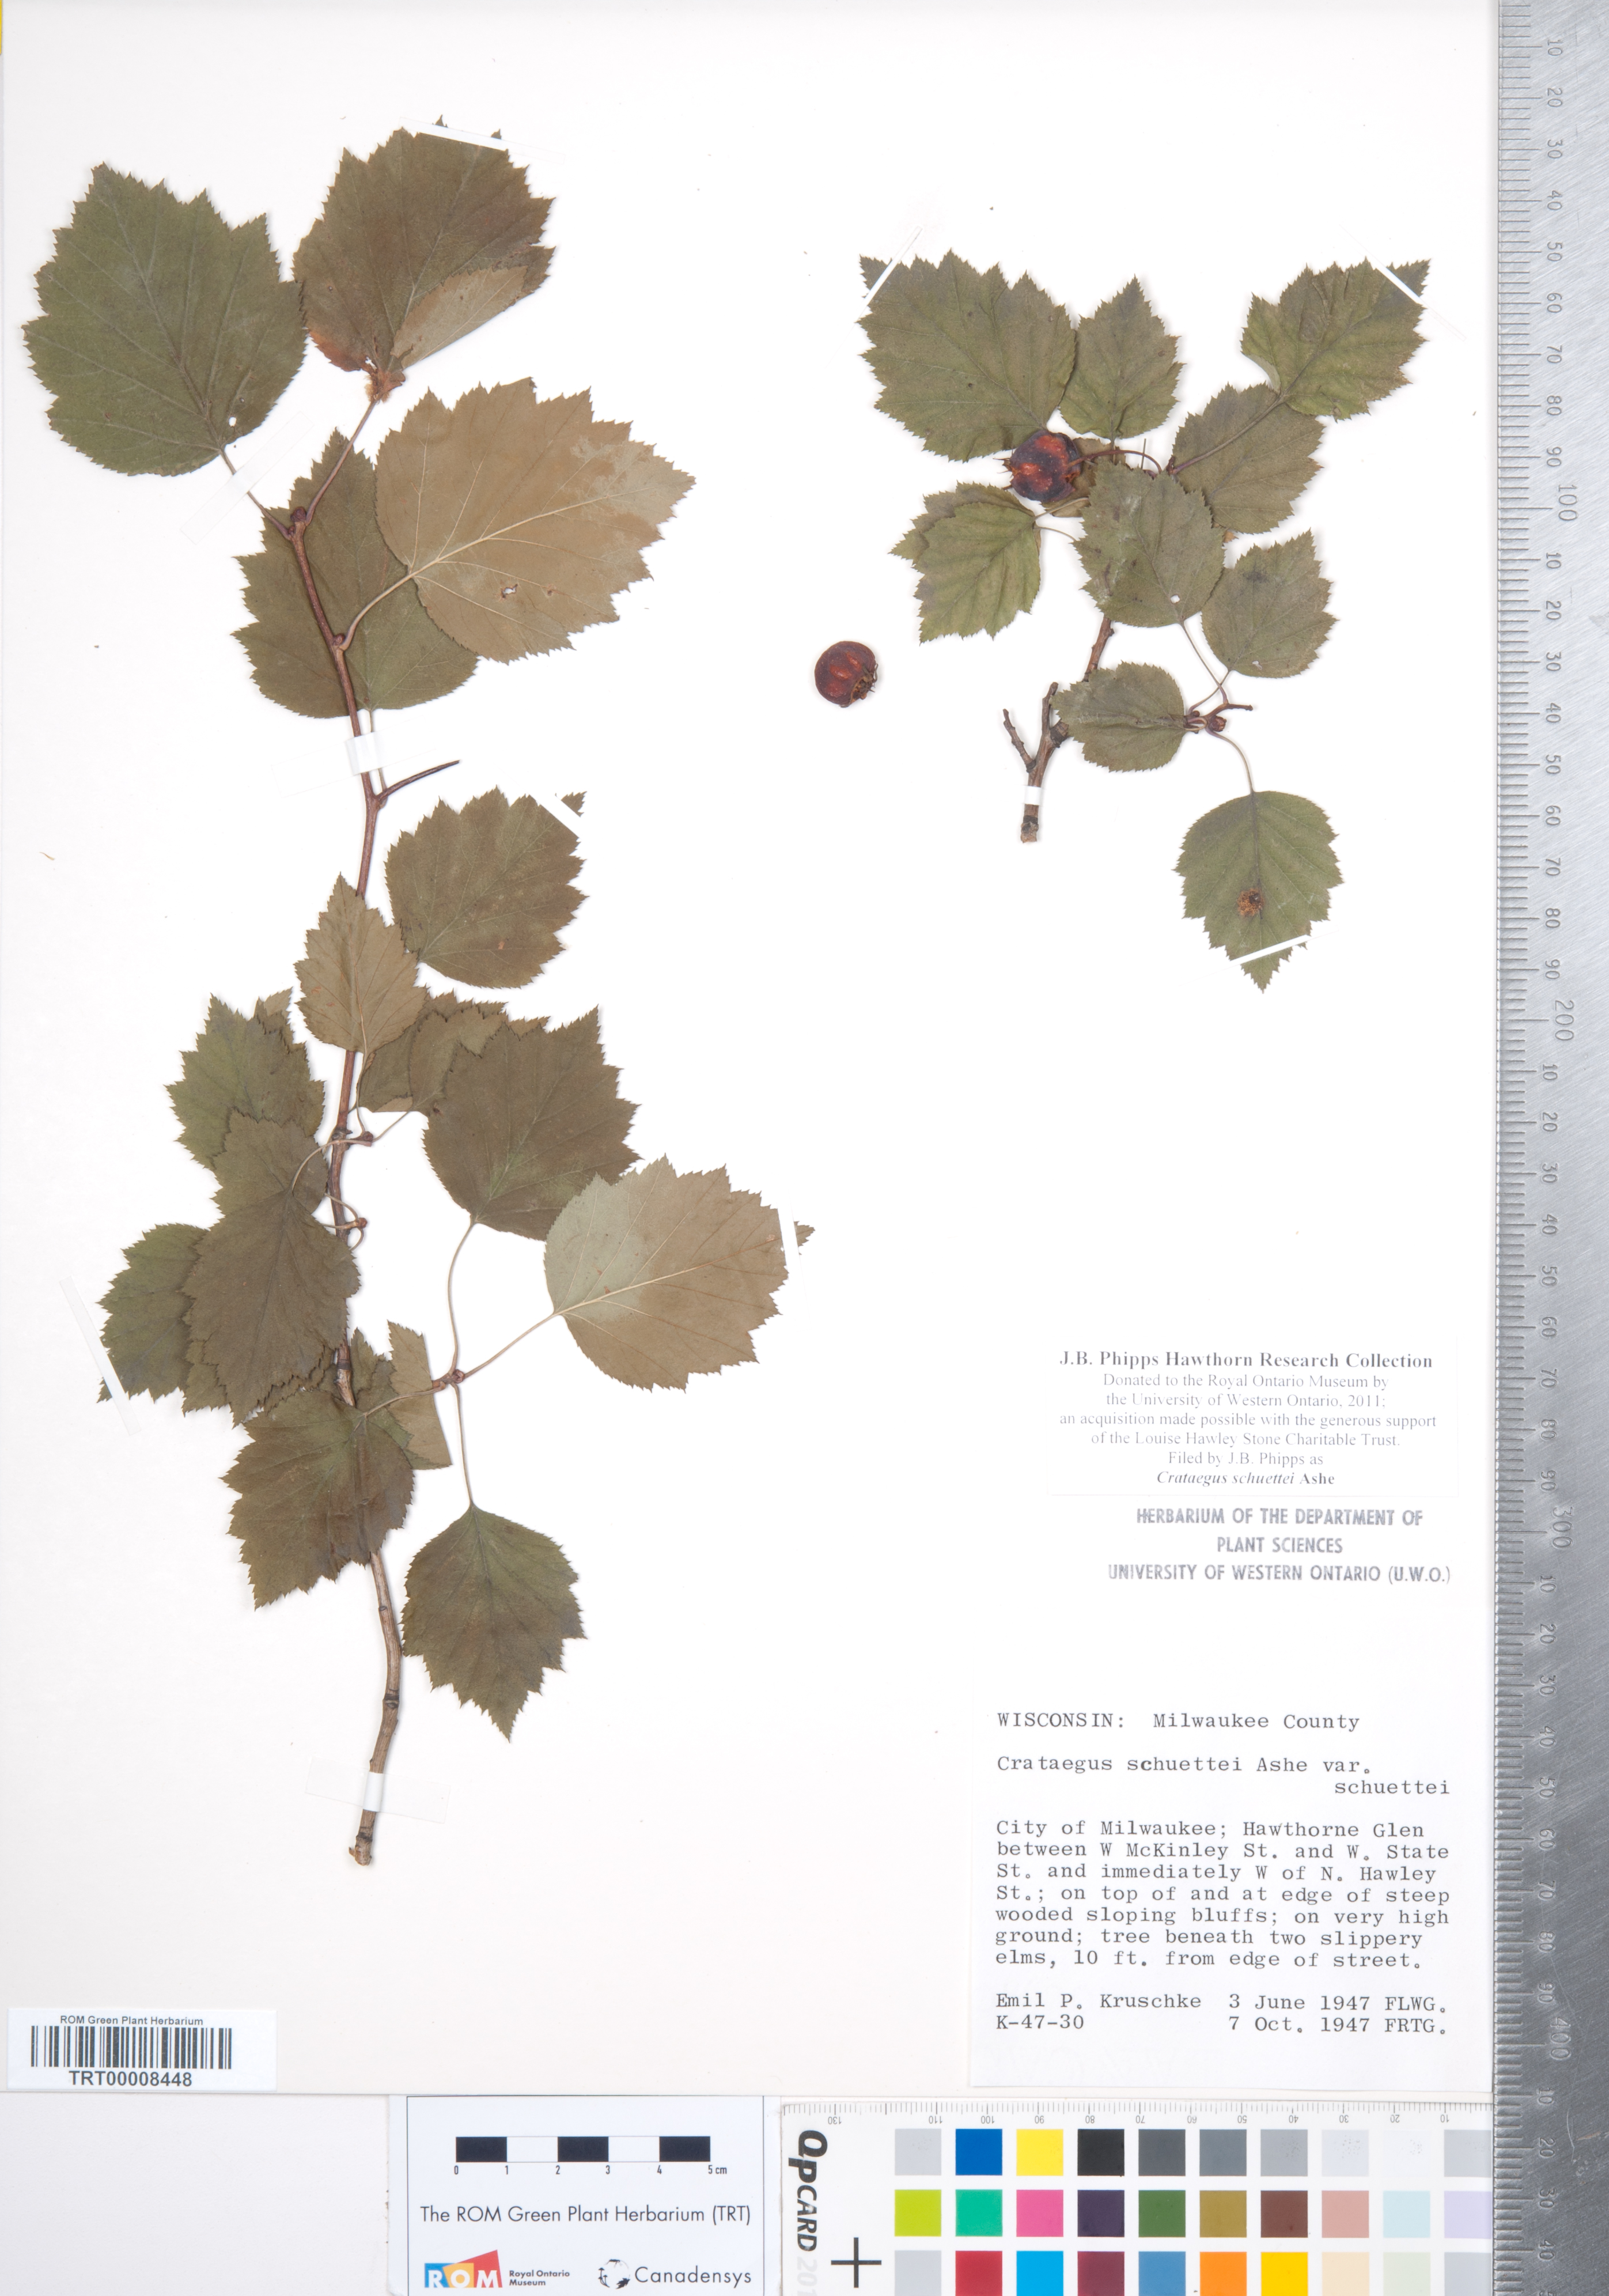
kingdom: Plantae
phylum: Tracheophyta
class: Magnoliopsida
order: Rosales
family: Rosaceae
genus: Crataegus
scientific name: Crataegus schuettei
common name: Schuette's hawthorn
